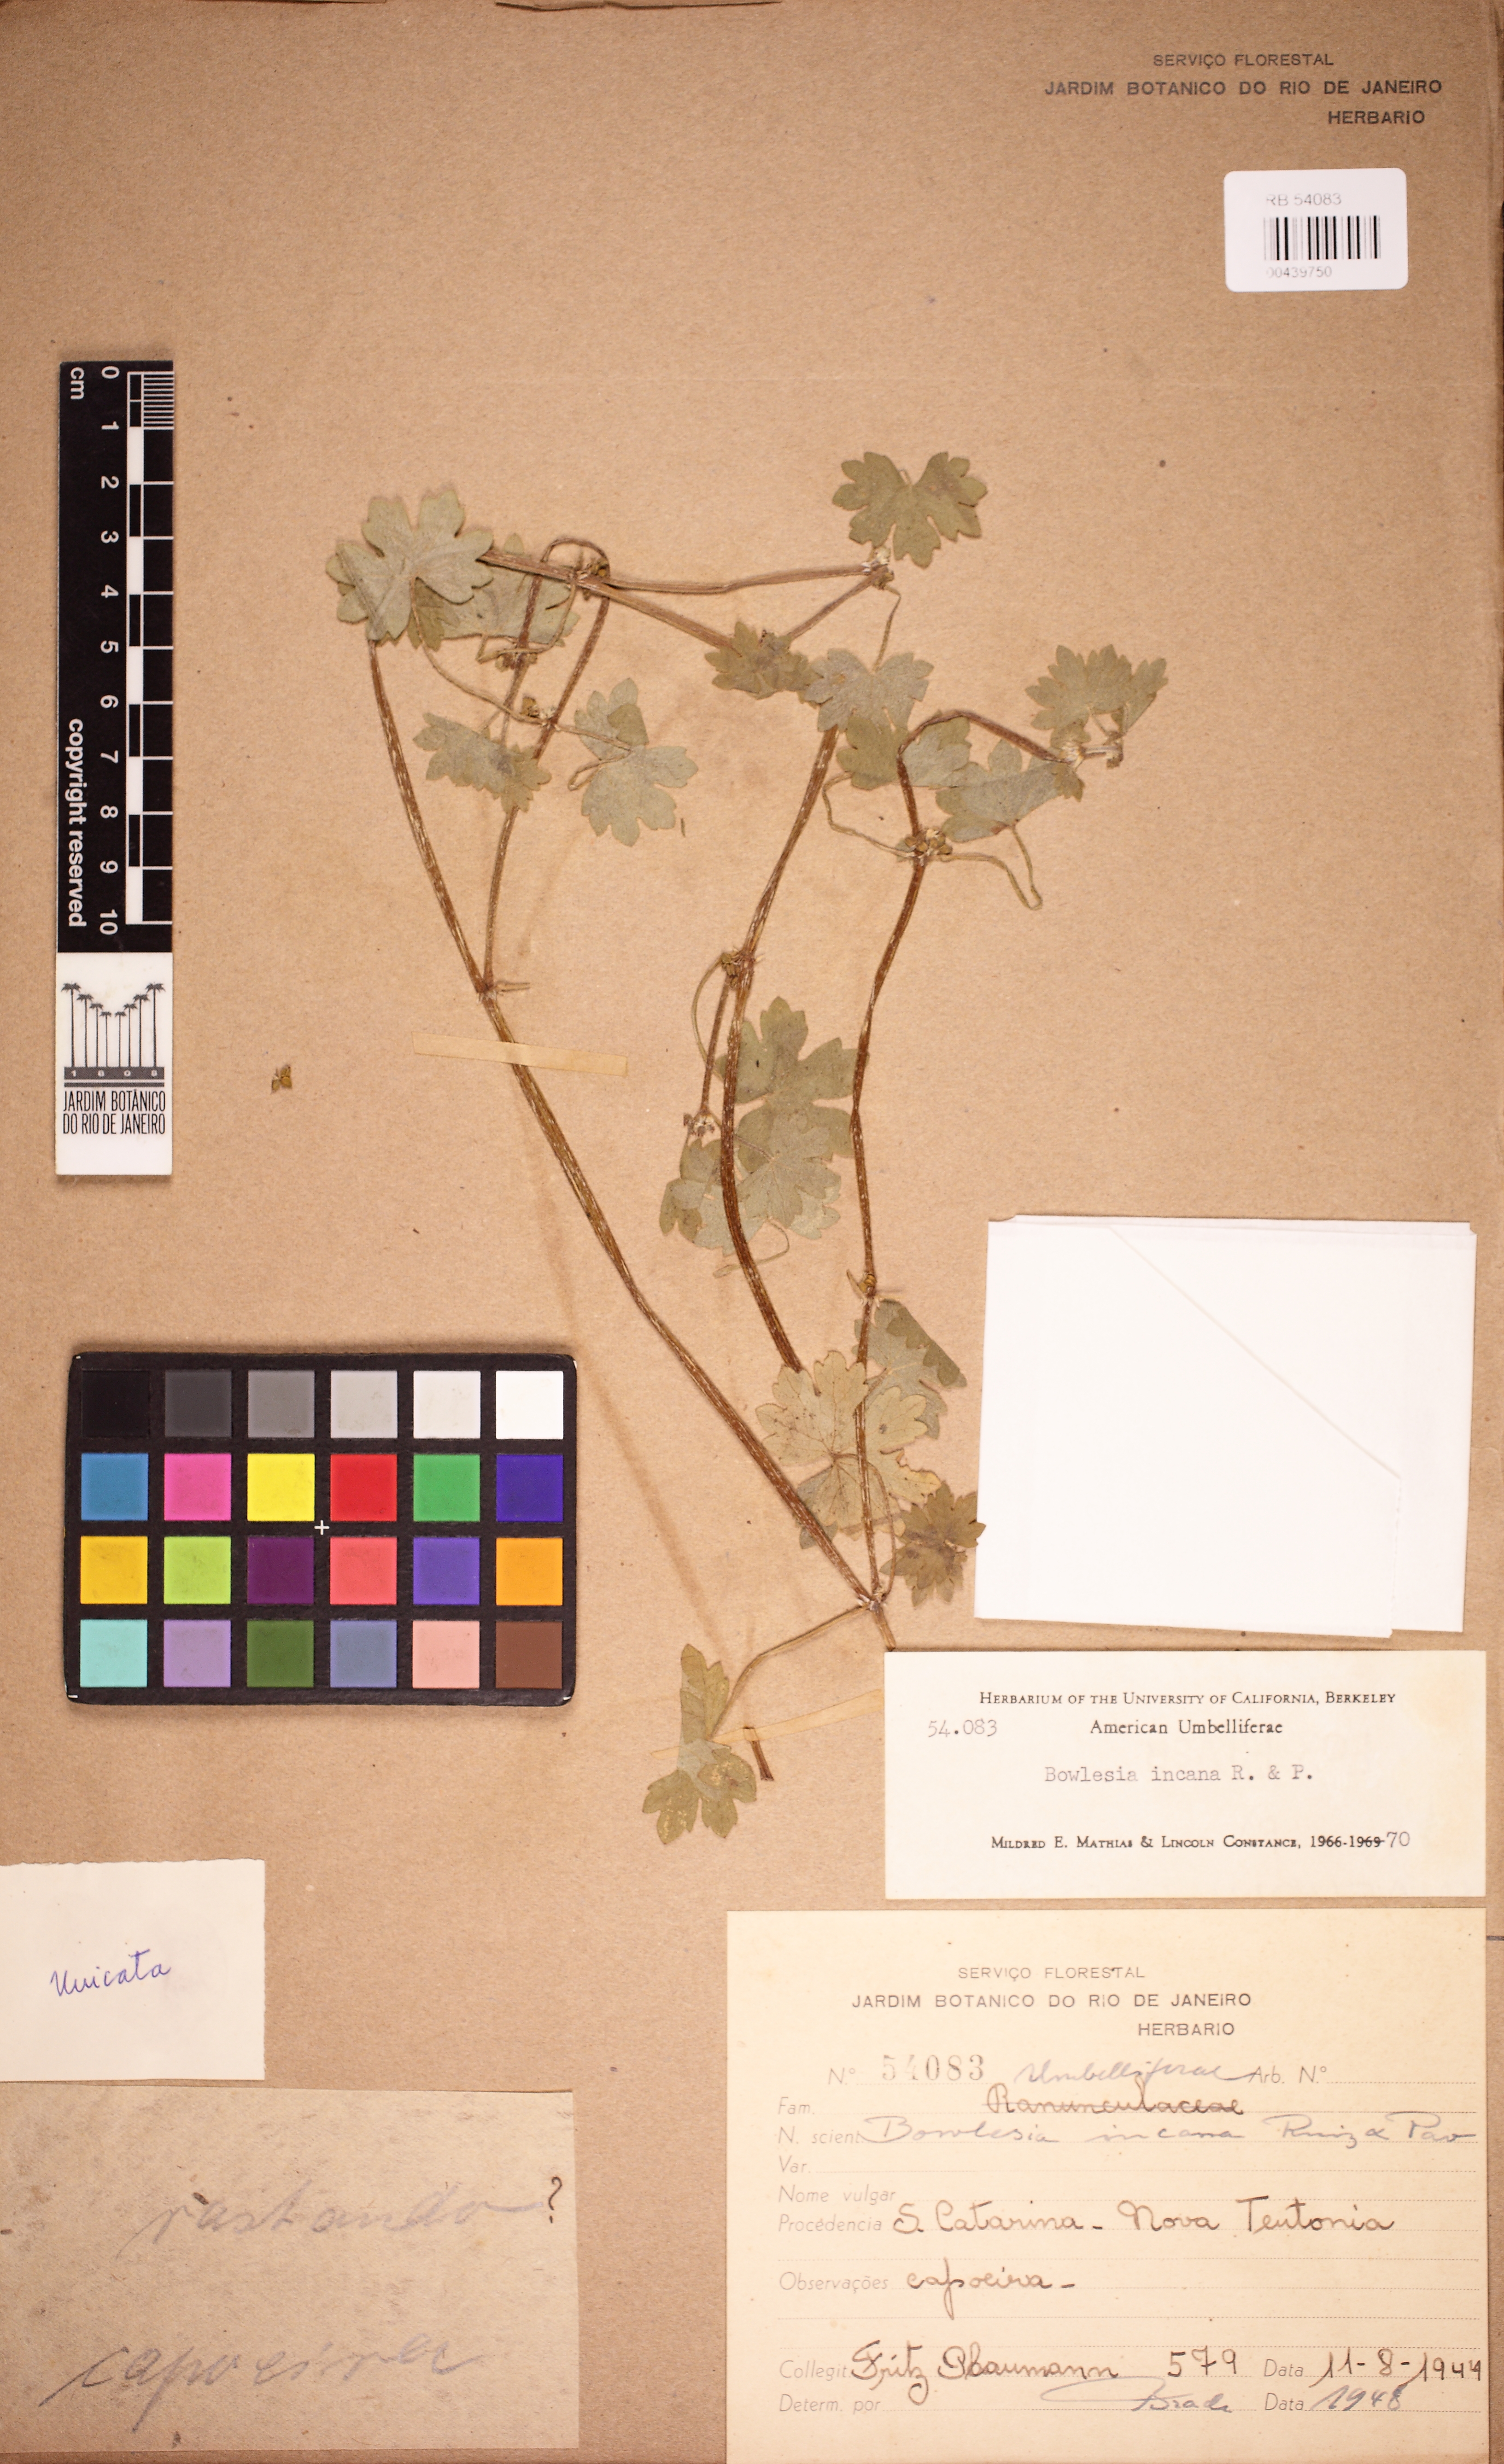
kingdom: Plantae
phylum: Tracheophyta
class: Magnoliopsida
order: Apiales
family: Apiaceae
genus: Bowlesia
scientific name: Bowlesia incana
